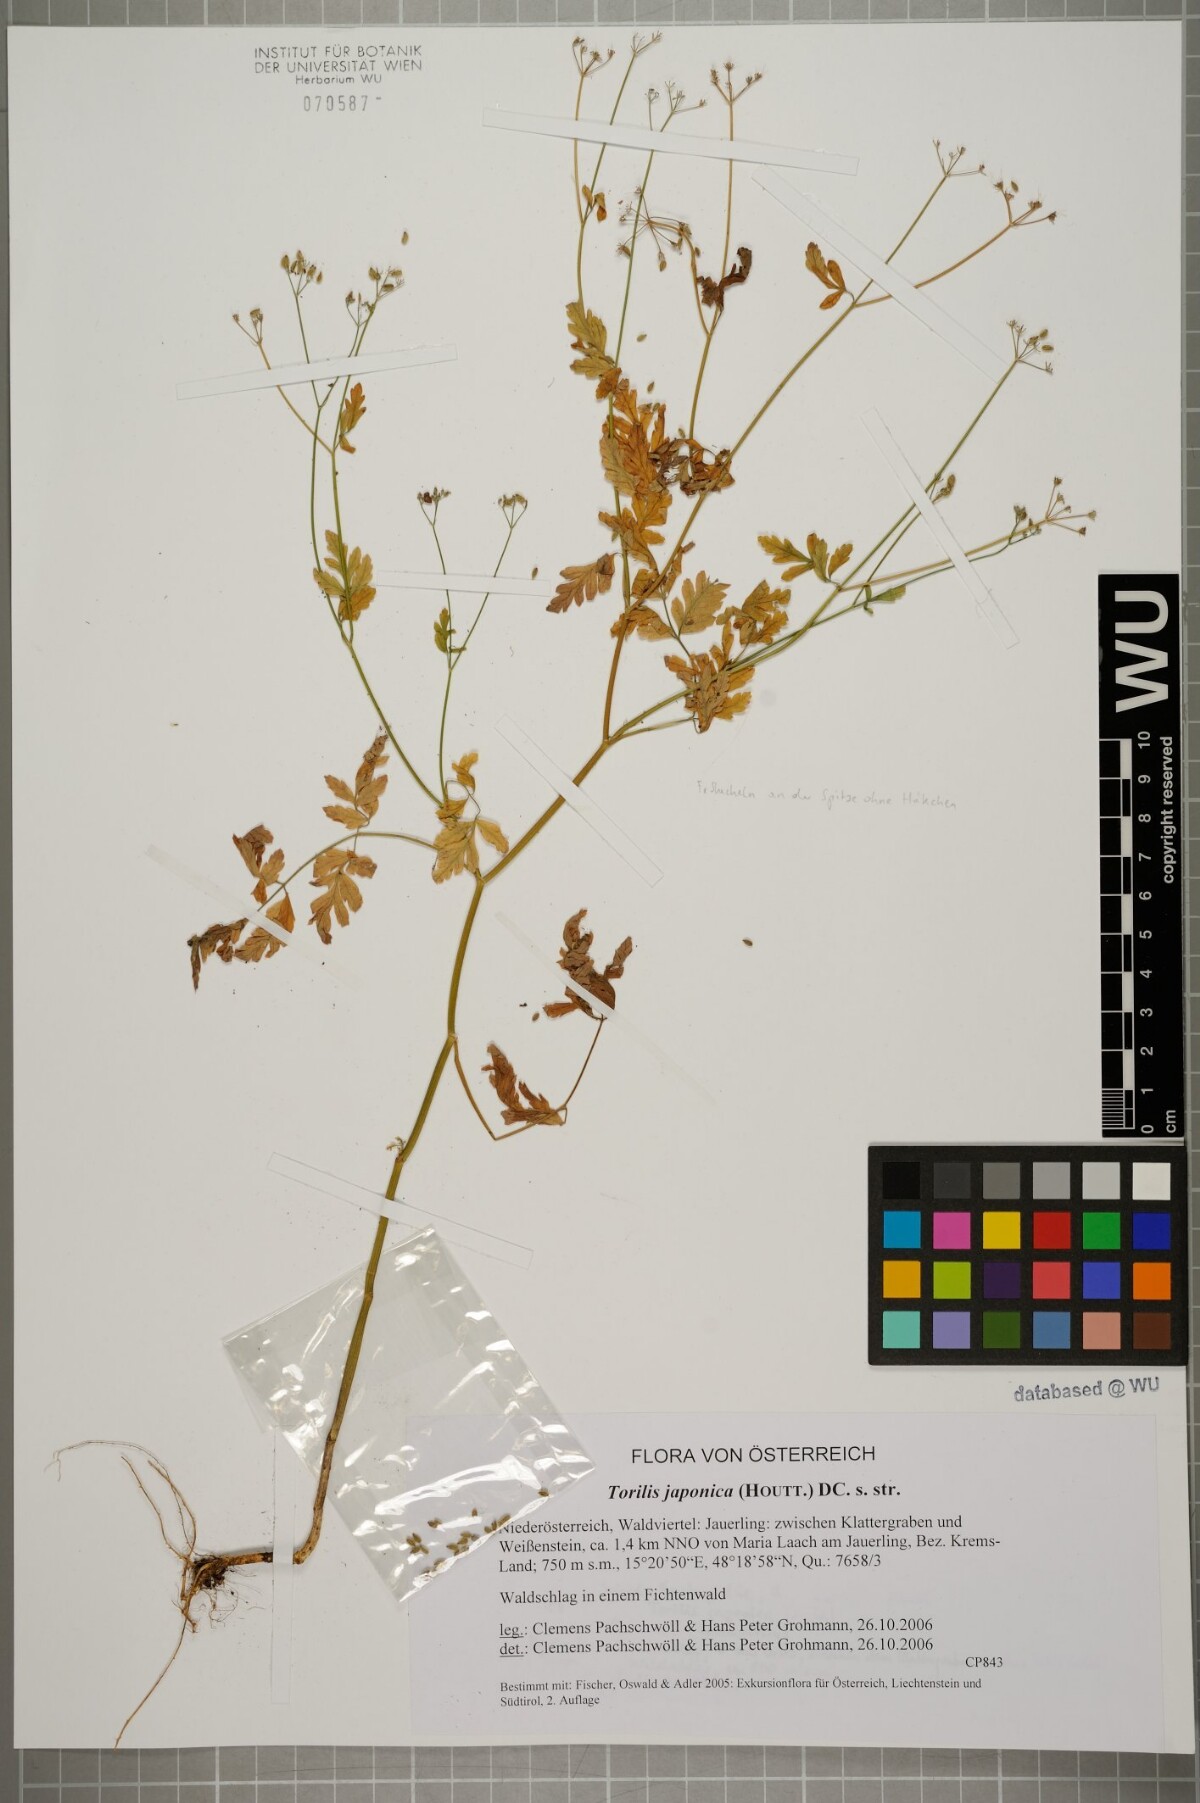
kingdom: Plantae
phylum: Tracheophyta
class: Magnoliopsida
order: Apiales
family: Apiaceae
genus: Torilis
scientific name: Torilis japonica
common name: Upright hedge-parsley
